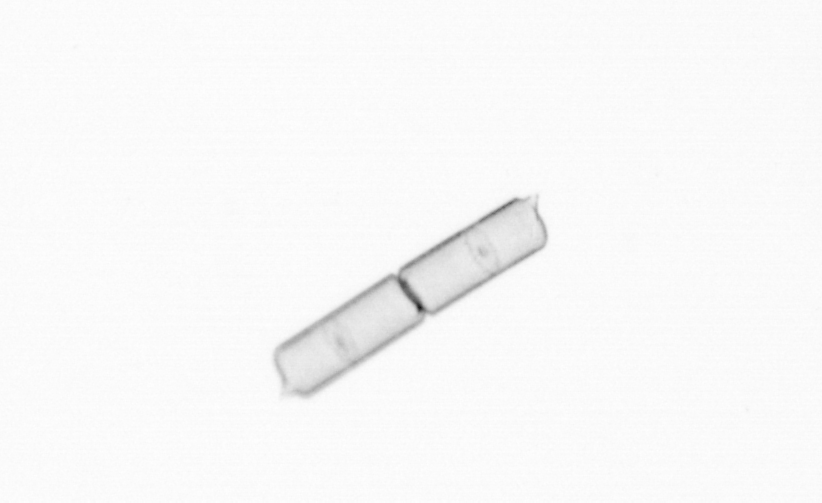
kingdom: Chromista
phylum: Ochrophyta
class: Bacillariophyceae
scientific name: Bacillariophyceae
